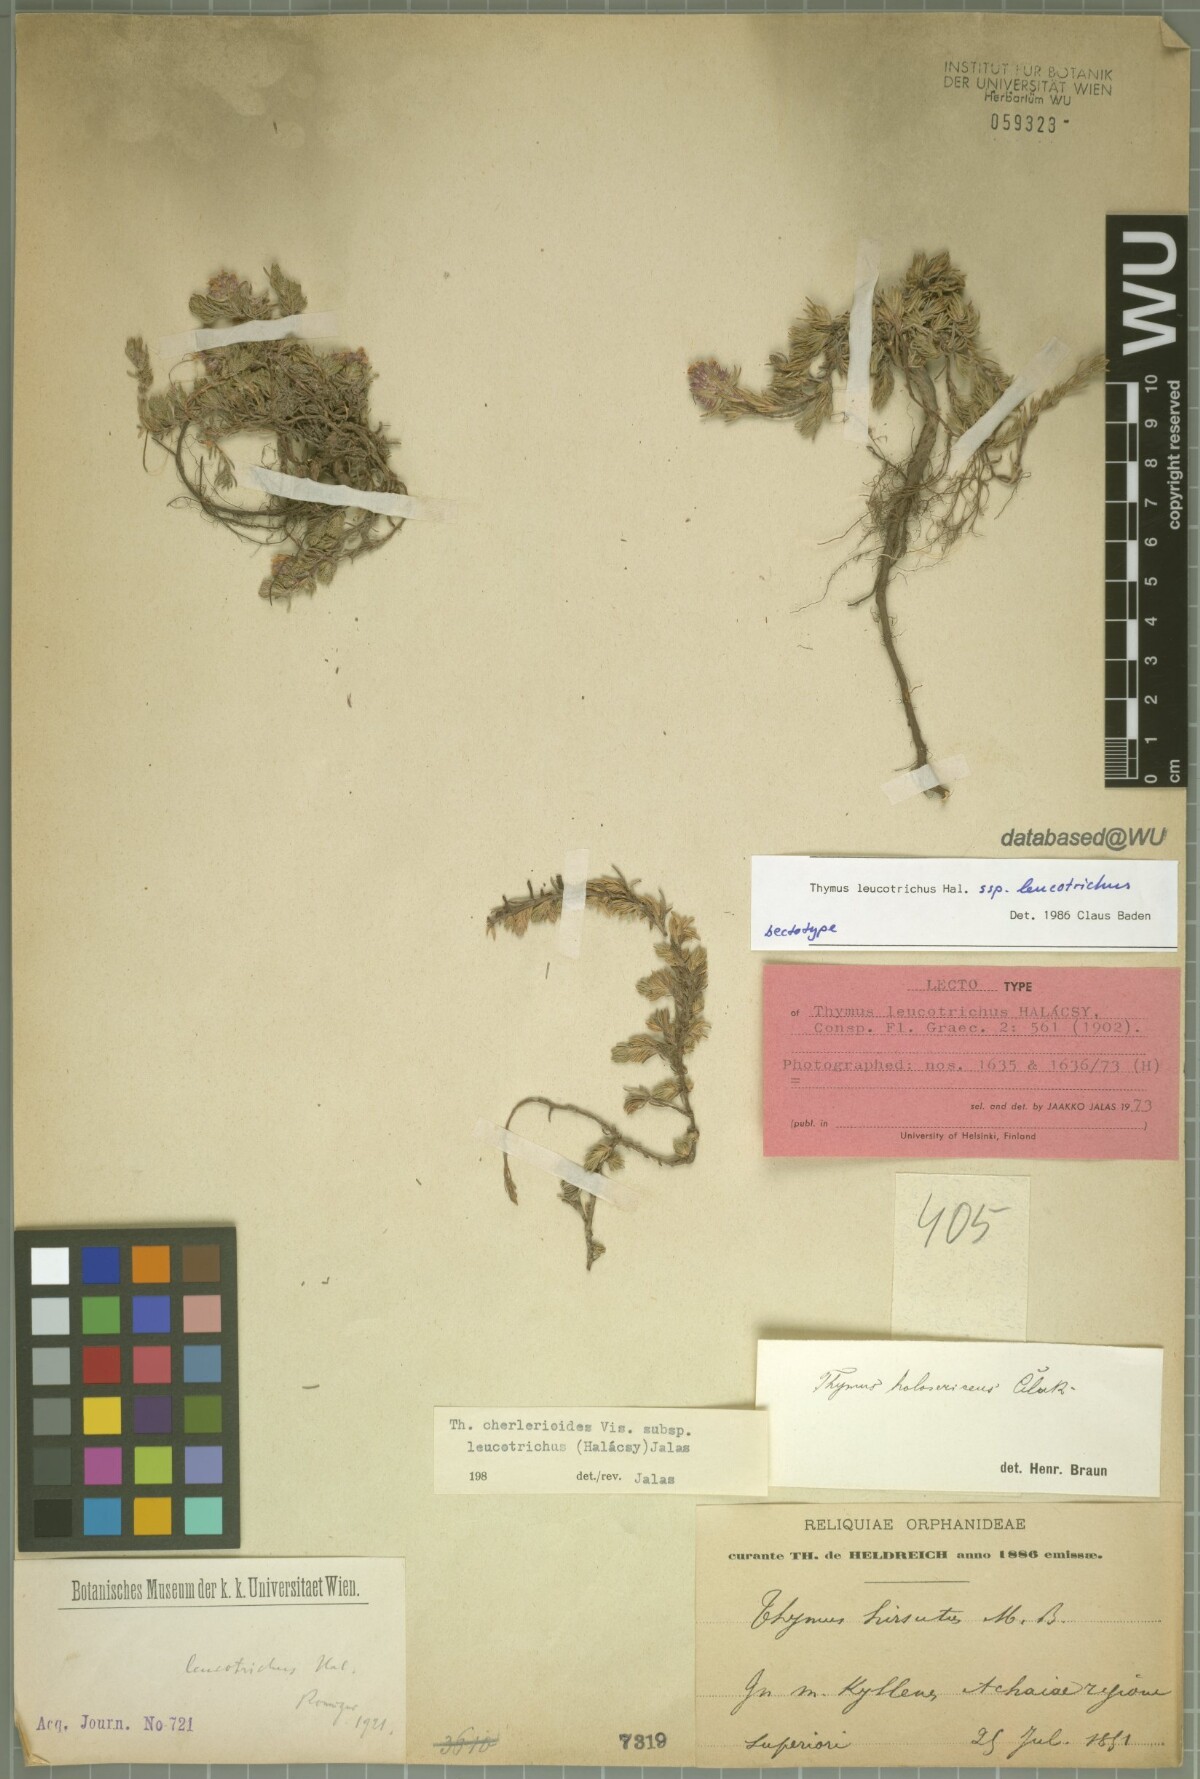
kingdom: Plantae
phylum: Tracheophyta
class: Magnoliopsida
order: Lamiales
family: Lamiaceae
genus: Thymus
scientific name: Thymus leucotrichus
